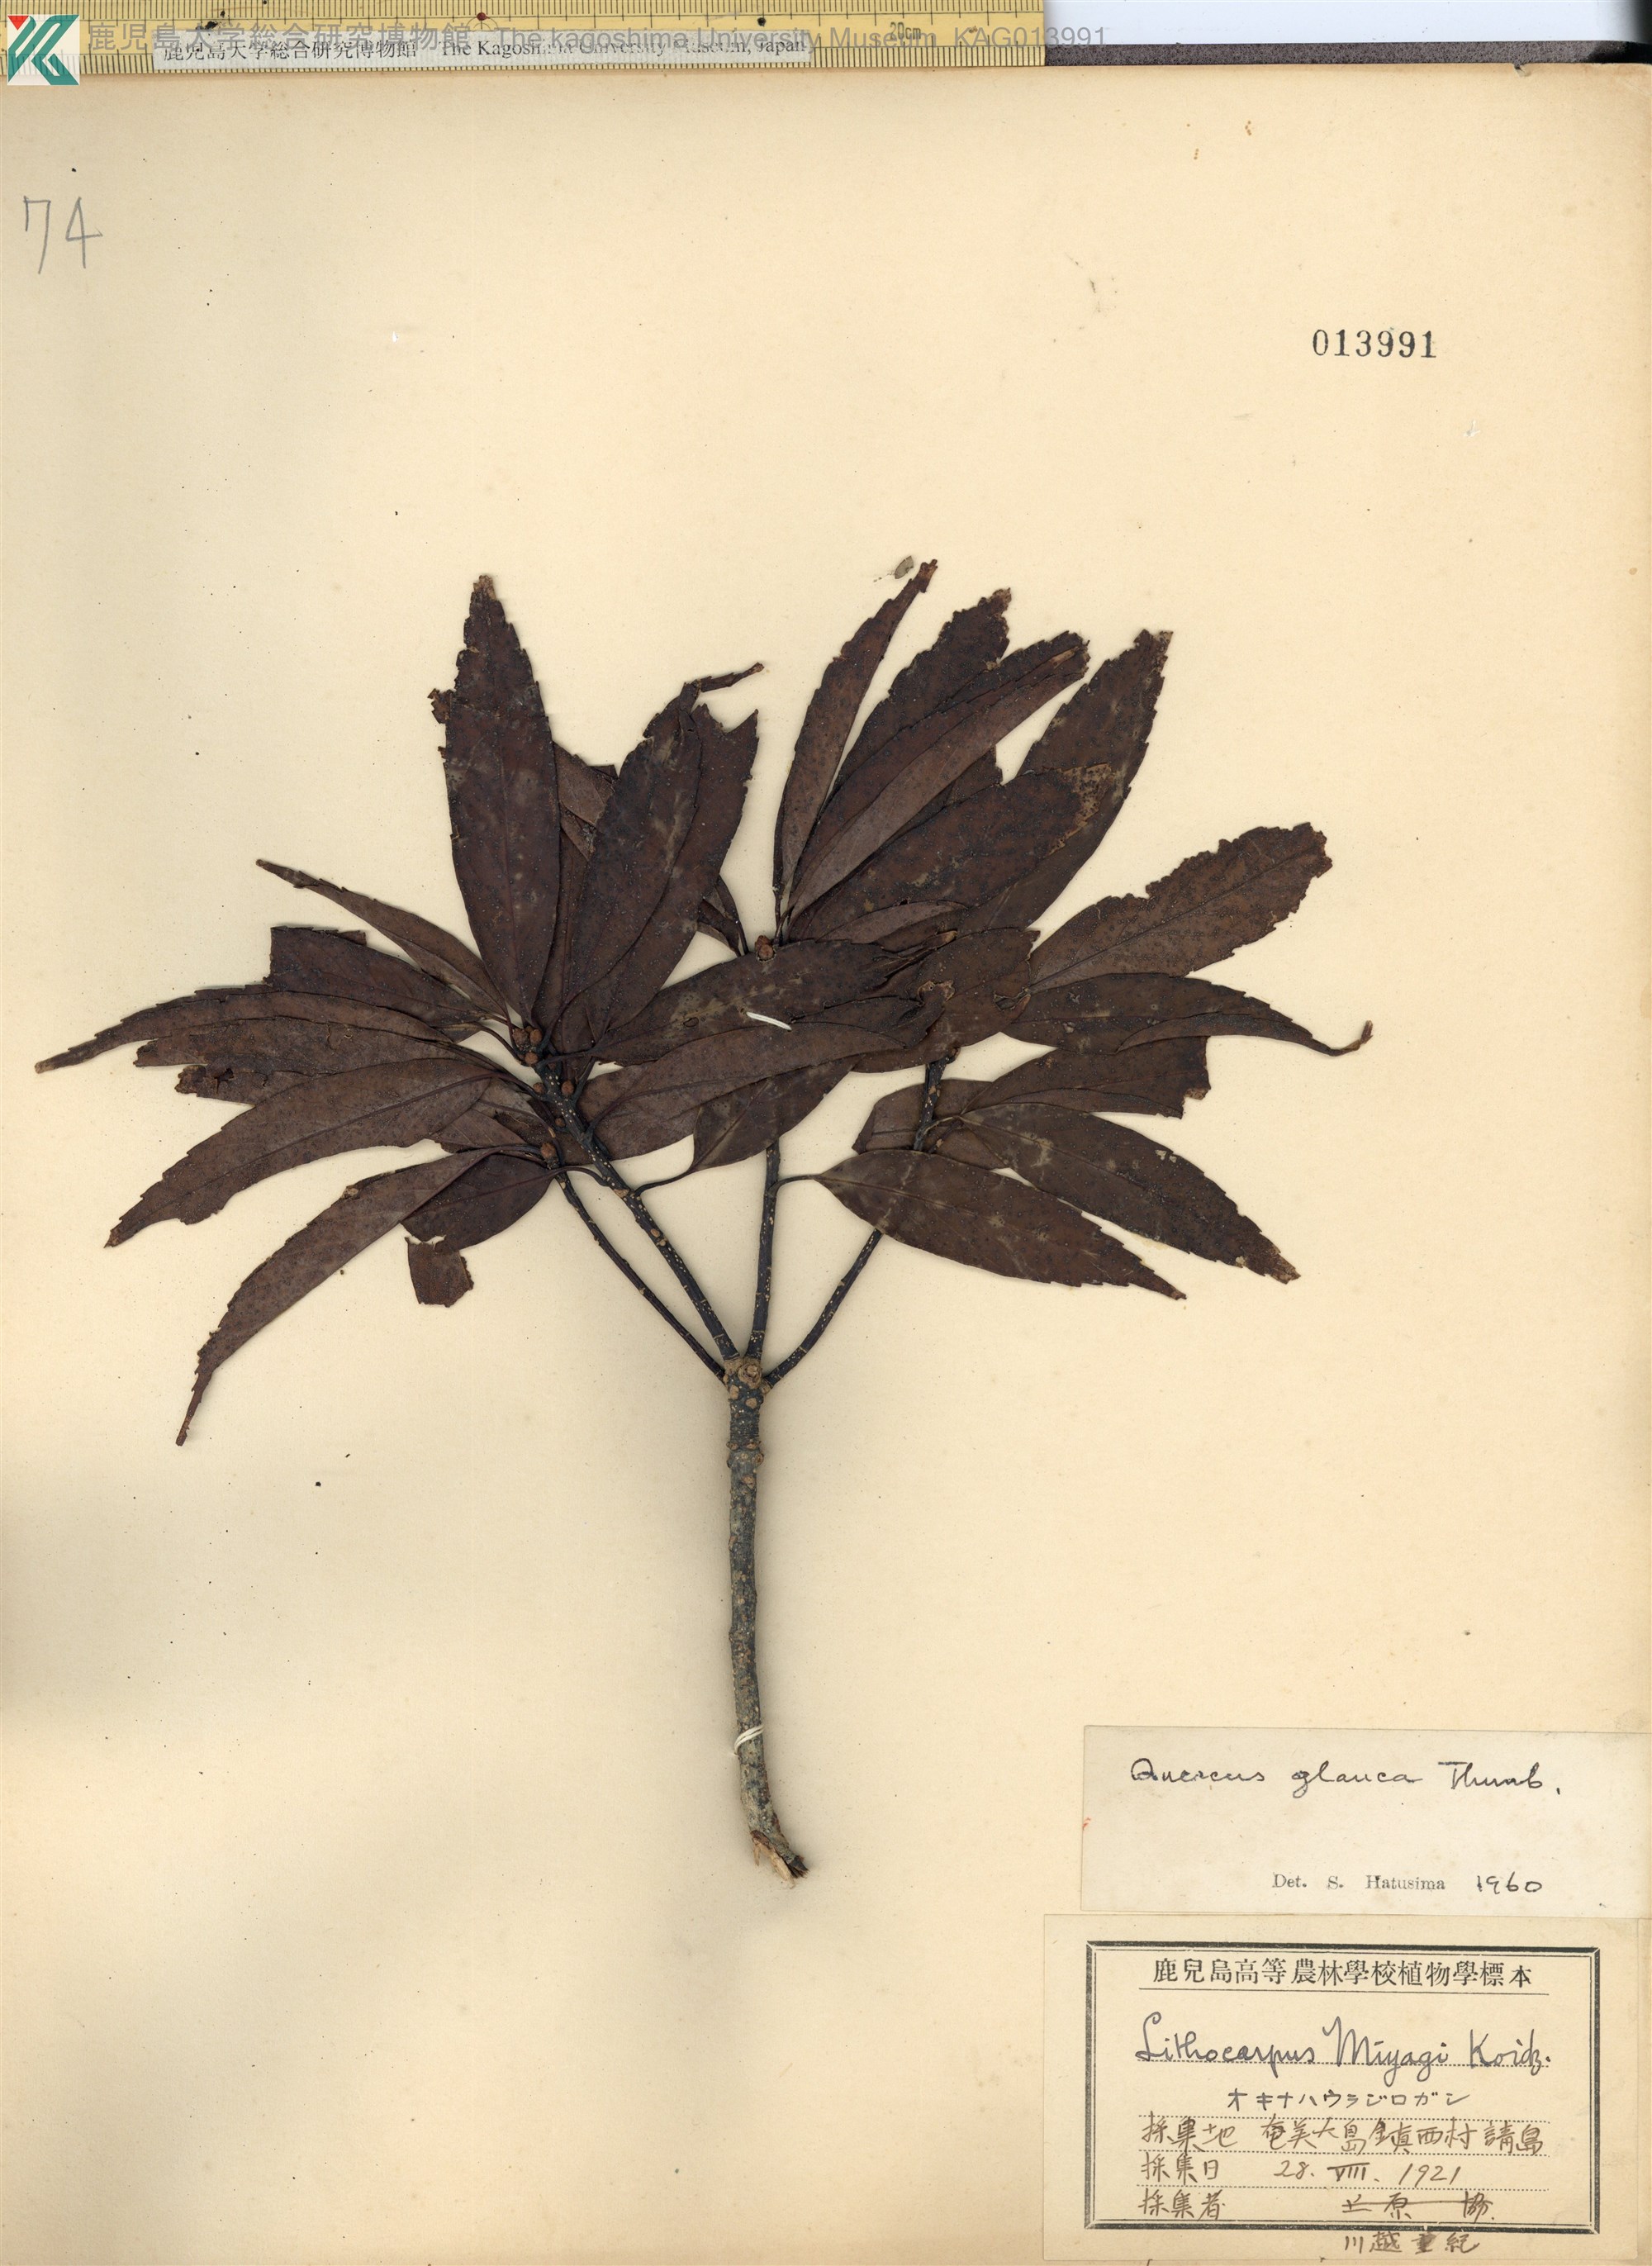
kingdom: Plantae
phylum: Tracheophyta
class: Magnoliopsida
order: Fagales
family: Fagaceae
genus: Quercus
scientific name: Quercus miyagii
